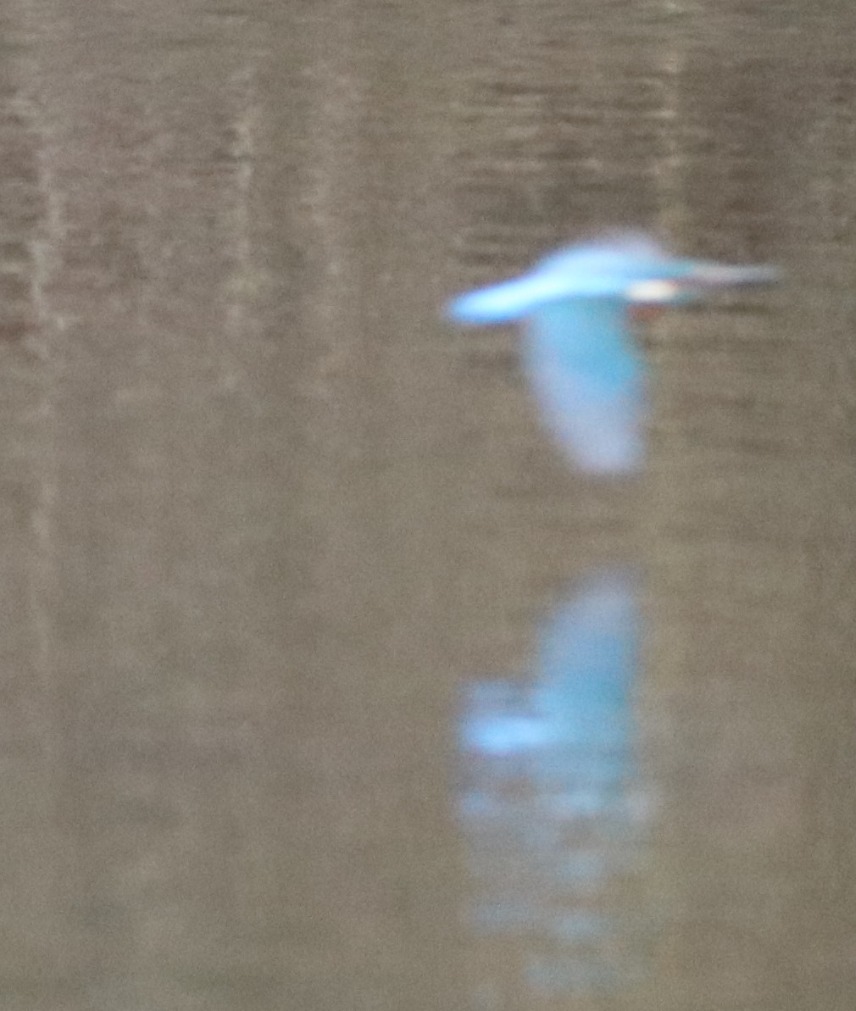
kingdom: Animalia
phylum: Chordata
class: Aves
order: Coraciiformes
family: Alcedinidae
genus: Alcedo
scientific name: Alcedo atthis
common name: Isfugl
